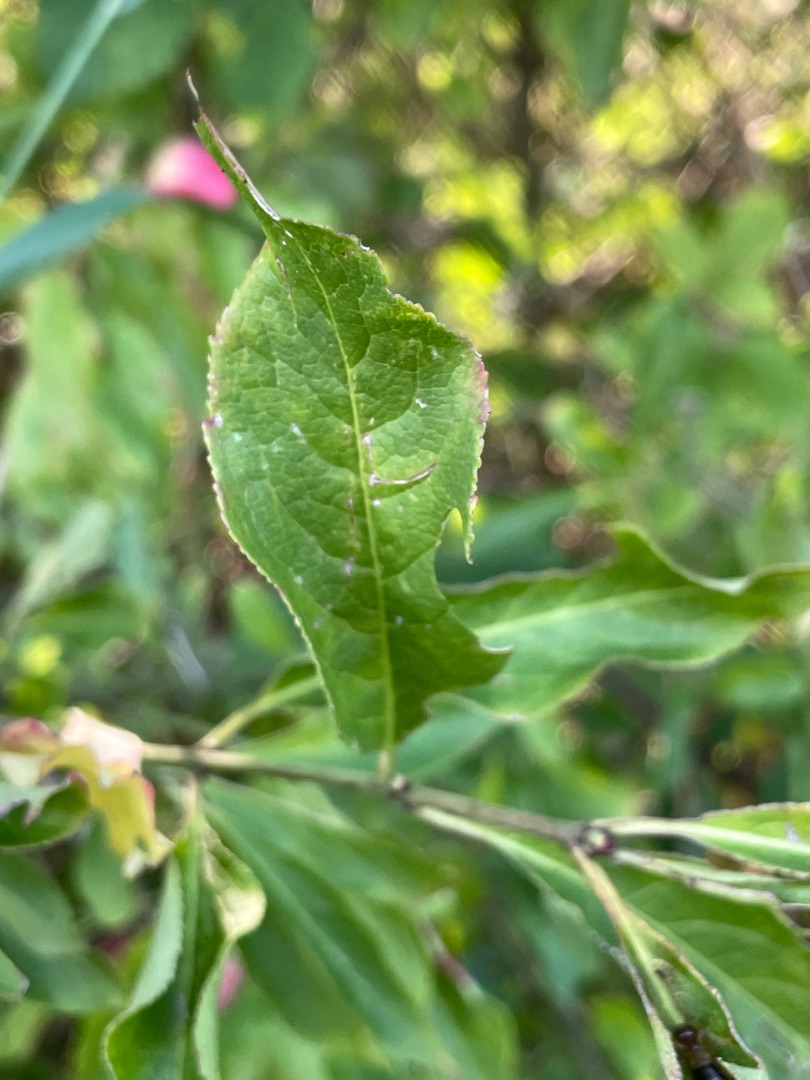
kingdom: Plantae
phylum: Tracheophyta
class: Magnoliopsida
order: Celastrales
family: Celastraceae
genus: Euonymus
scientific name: Euonymus europaeus
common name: Benved
